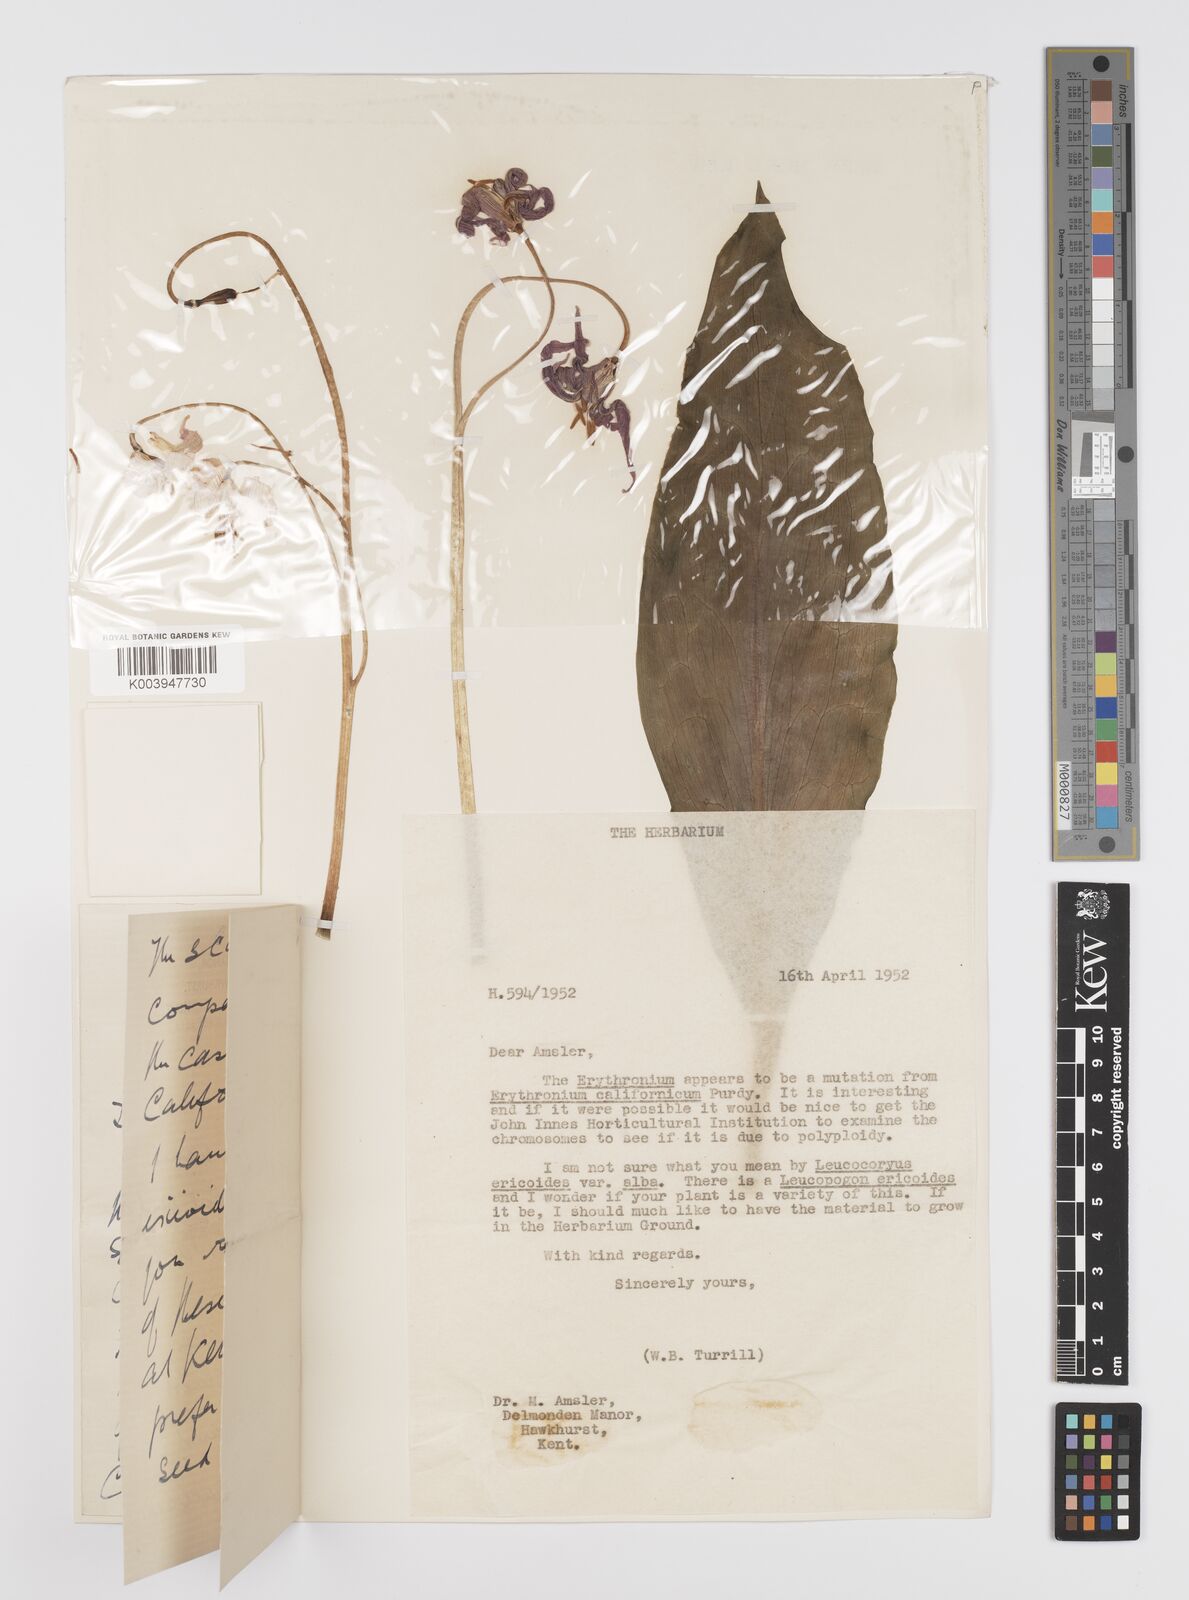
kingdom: Plantae
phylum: Tracheophyta
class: Liliopsida
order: Liliales
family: Liliaceae
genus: Erythronium
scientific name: Erythronium californicum
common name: Fawn-lily
